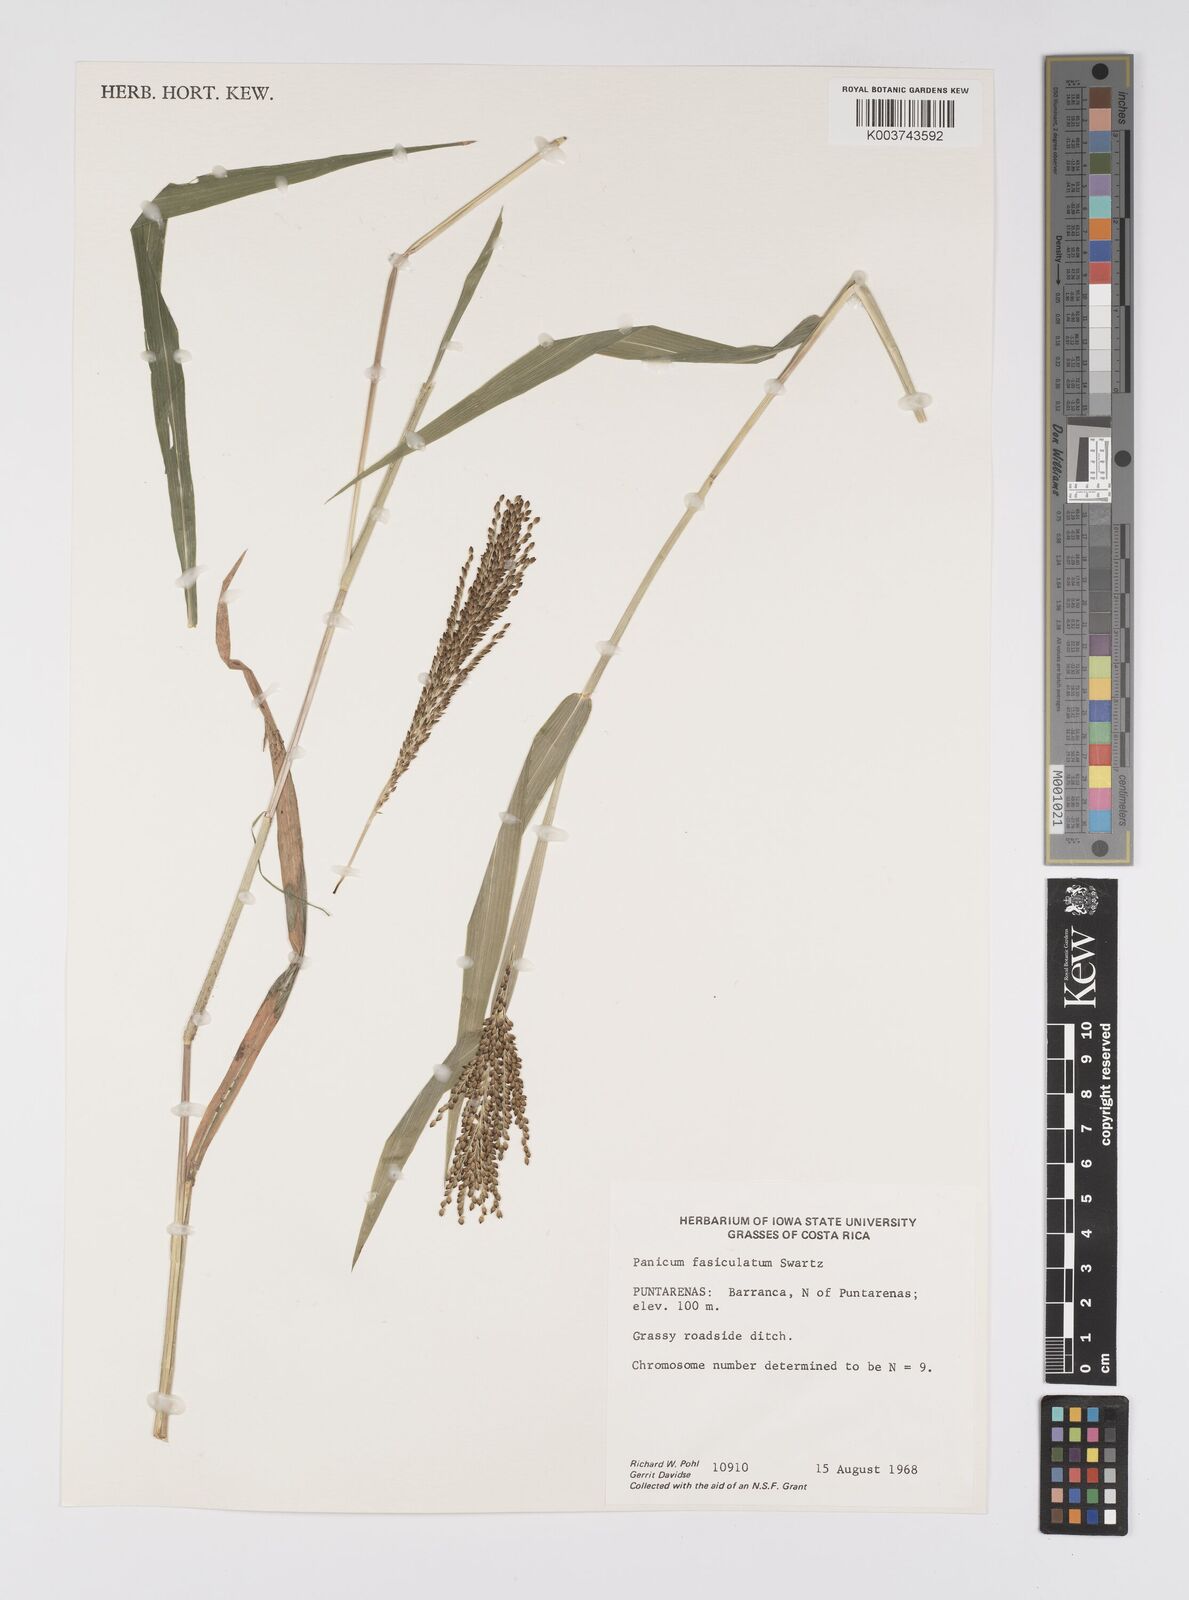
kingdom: Plantae
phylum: Tracheophyta
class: Liliopsida
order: Poales
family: Poaceae
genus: Urochloa
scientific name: Urochloa fusca
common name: Browntop signal grass
